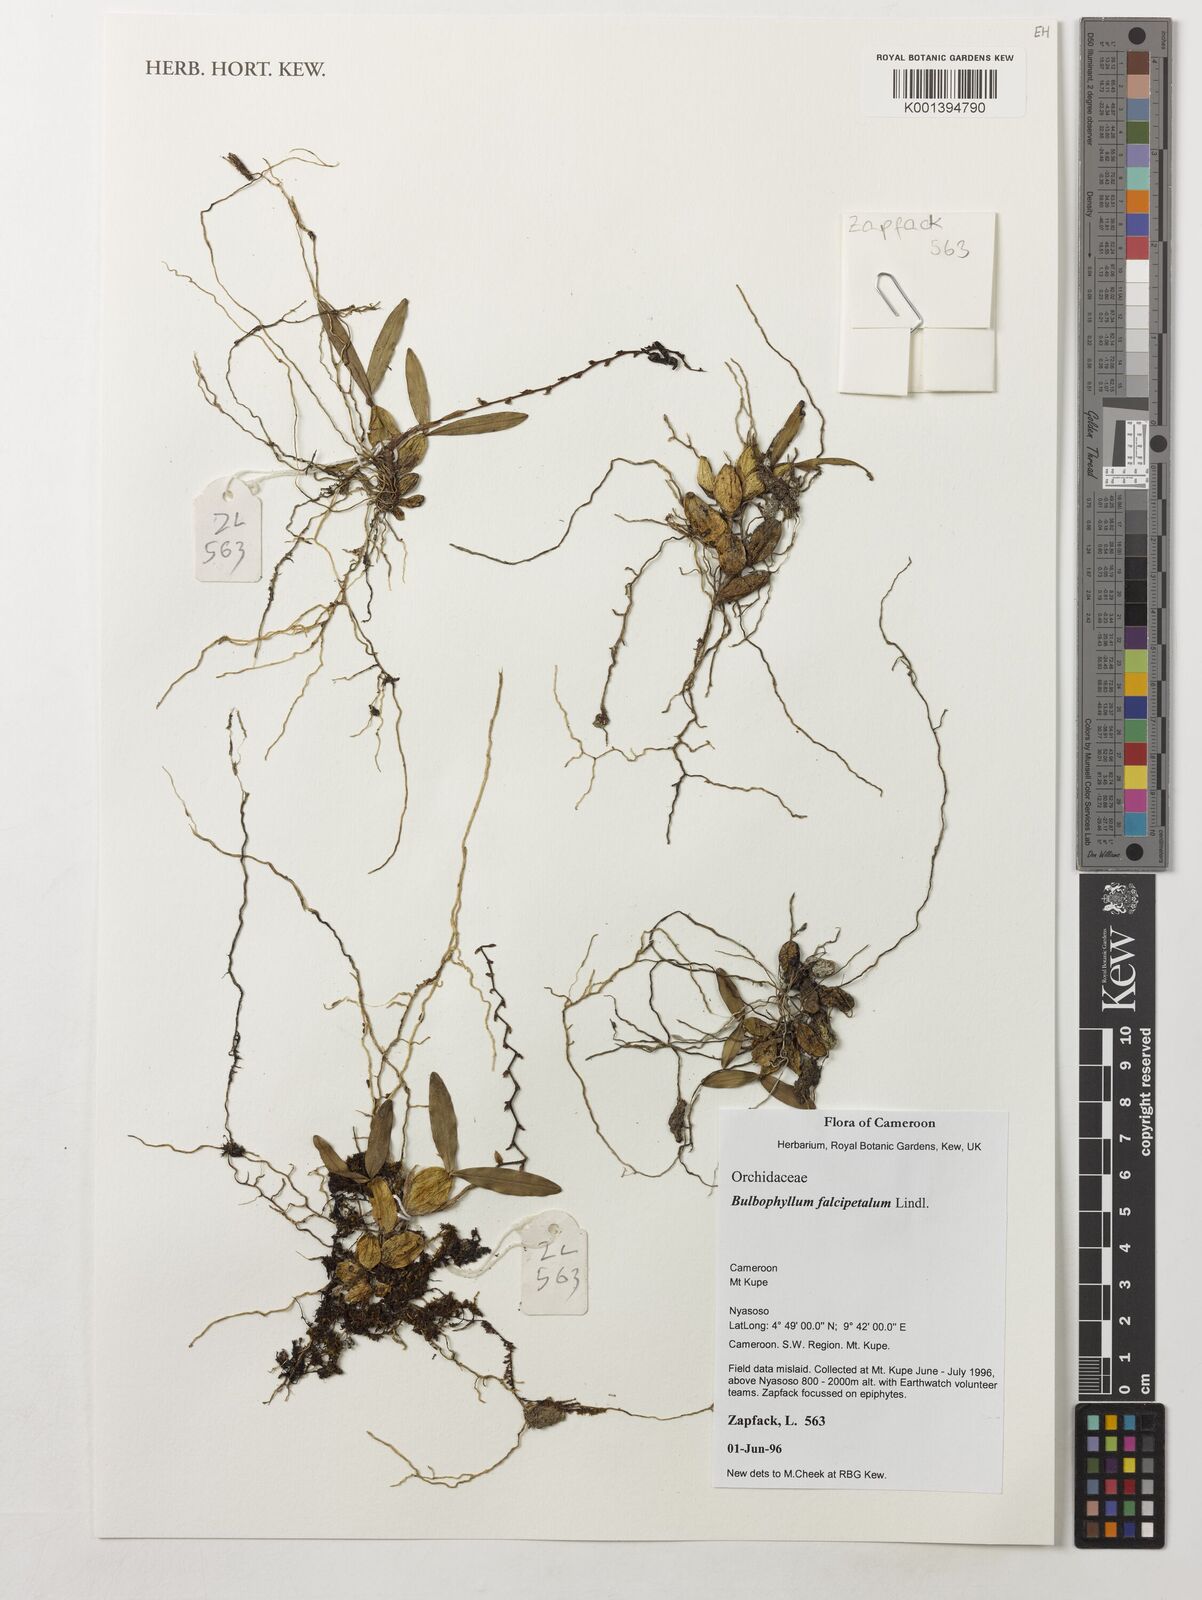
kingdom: Plantae
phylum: Tracheophyta
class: Liliopsida
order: Asparagales
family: Orchidaceae
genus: Bulbophyllum
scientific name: Bulbophyllum falcipetalum
